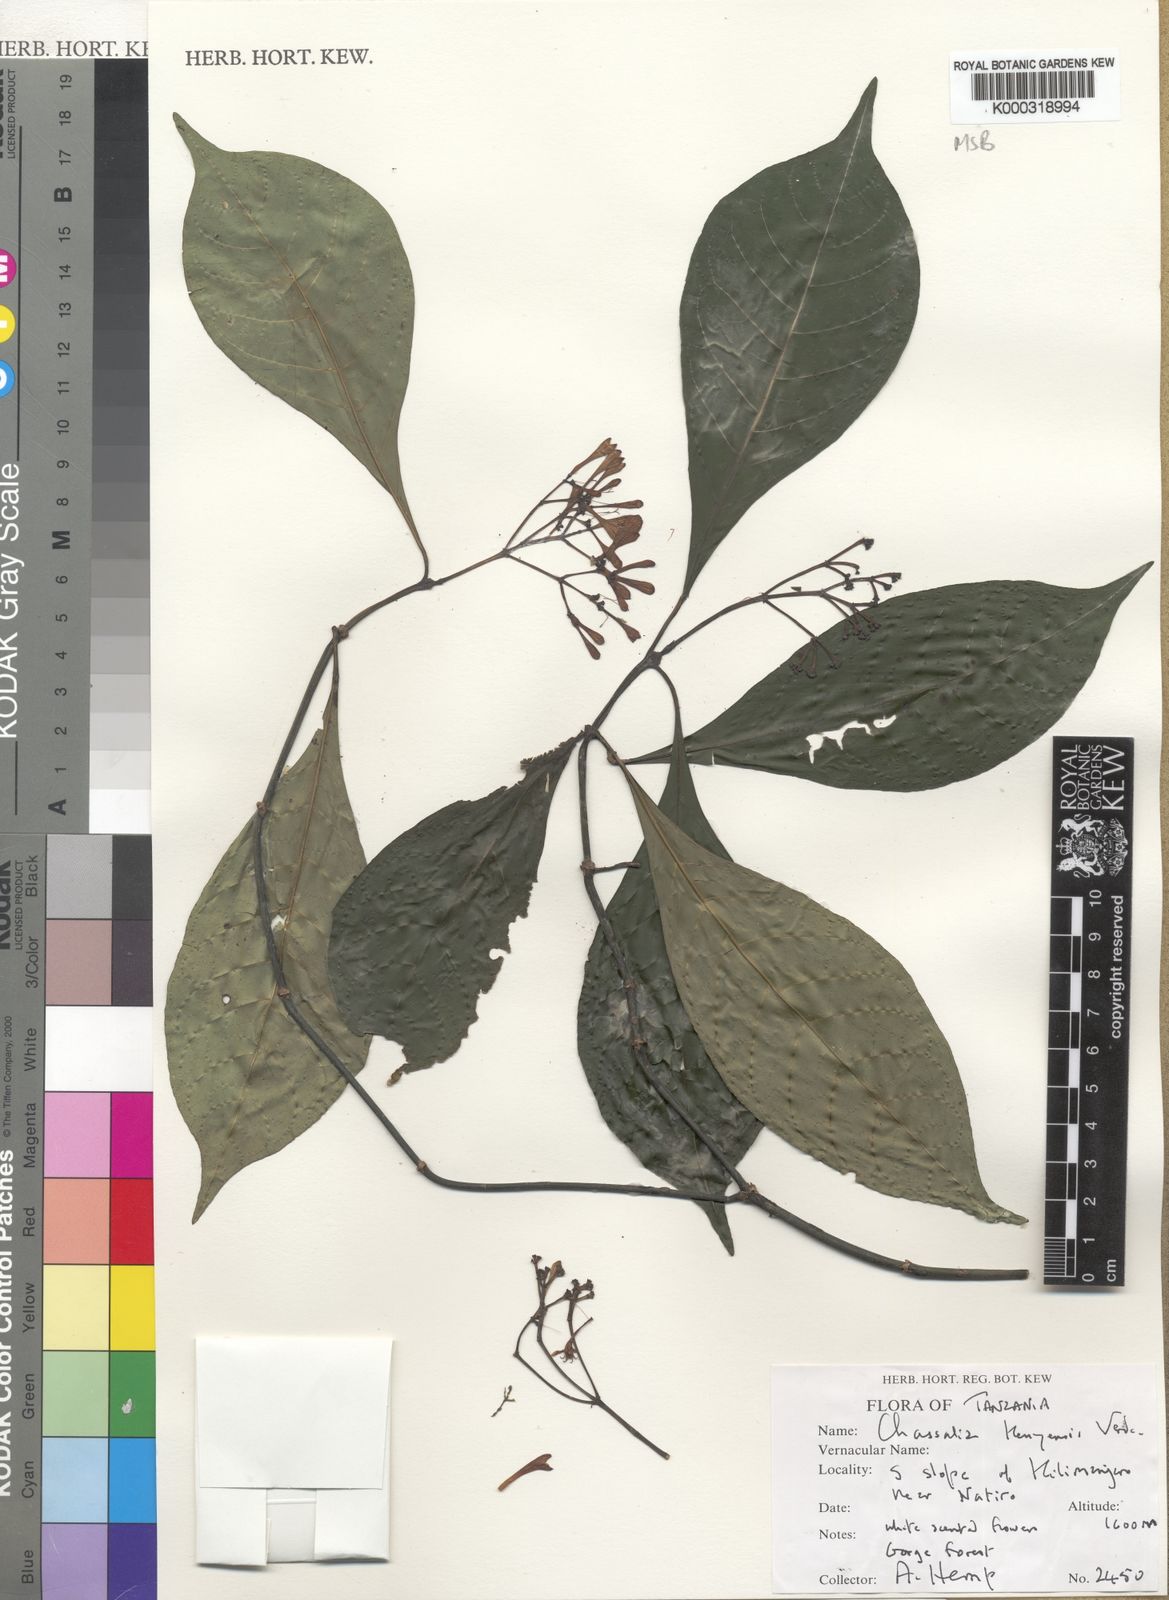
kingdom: Plantae
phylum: Tracheophyta
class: Magnoliopsida
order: Gentianales
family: Rubiaceae
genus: Chassalia
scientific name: Chassalia kenyensis
